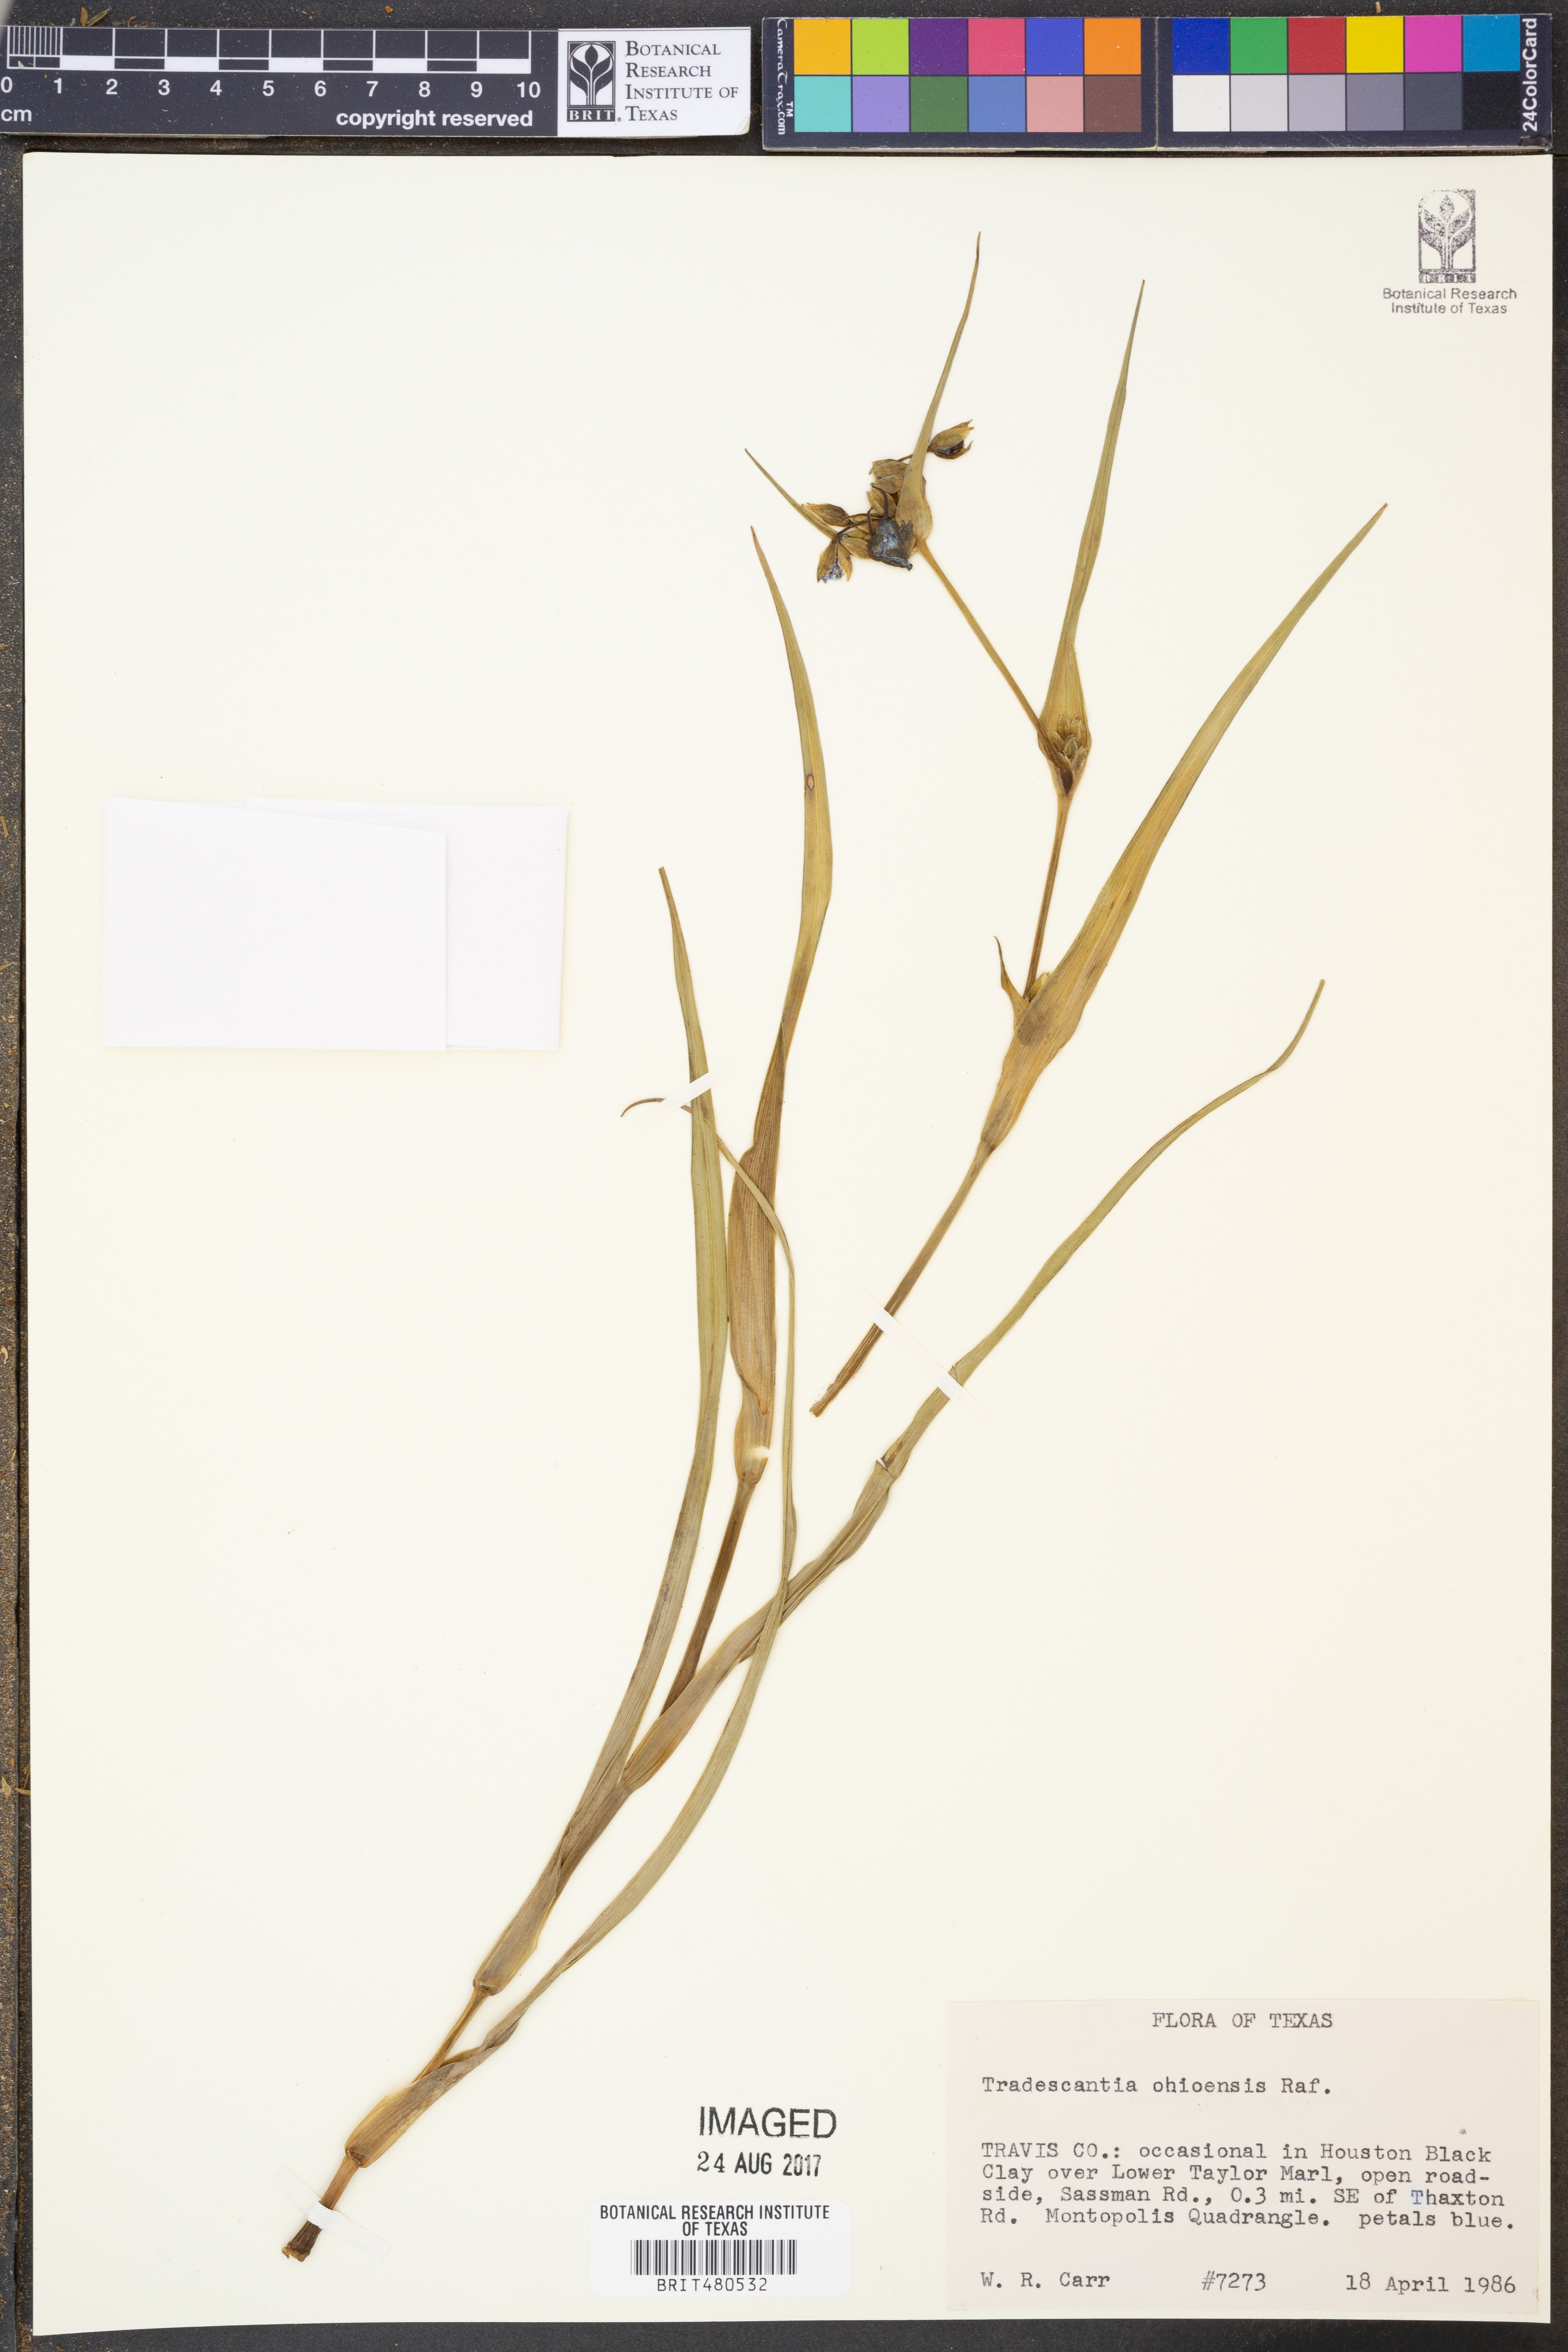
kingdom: Plantae
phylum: Tracheophyta
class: Liliopsida
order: Commelinales
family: Commelinaceae
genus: Tradescantia
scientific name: Tradescantia ohiensis
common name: Ohio spiderwort
